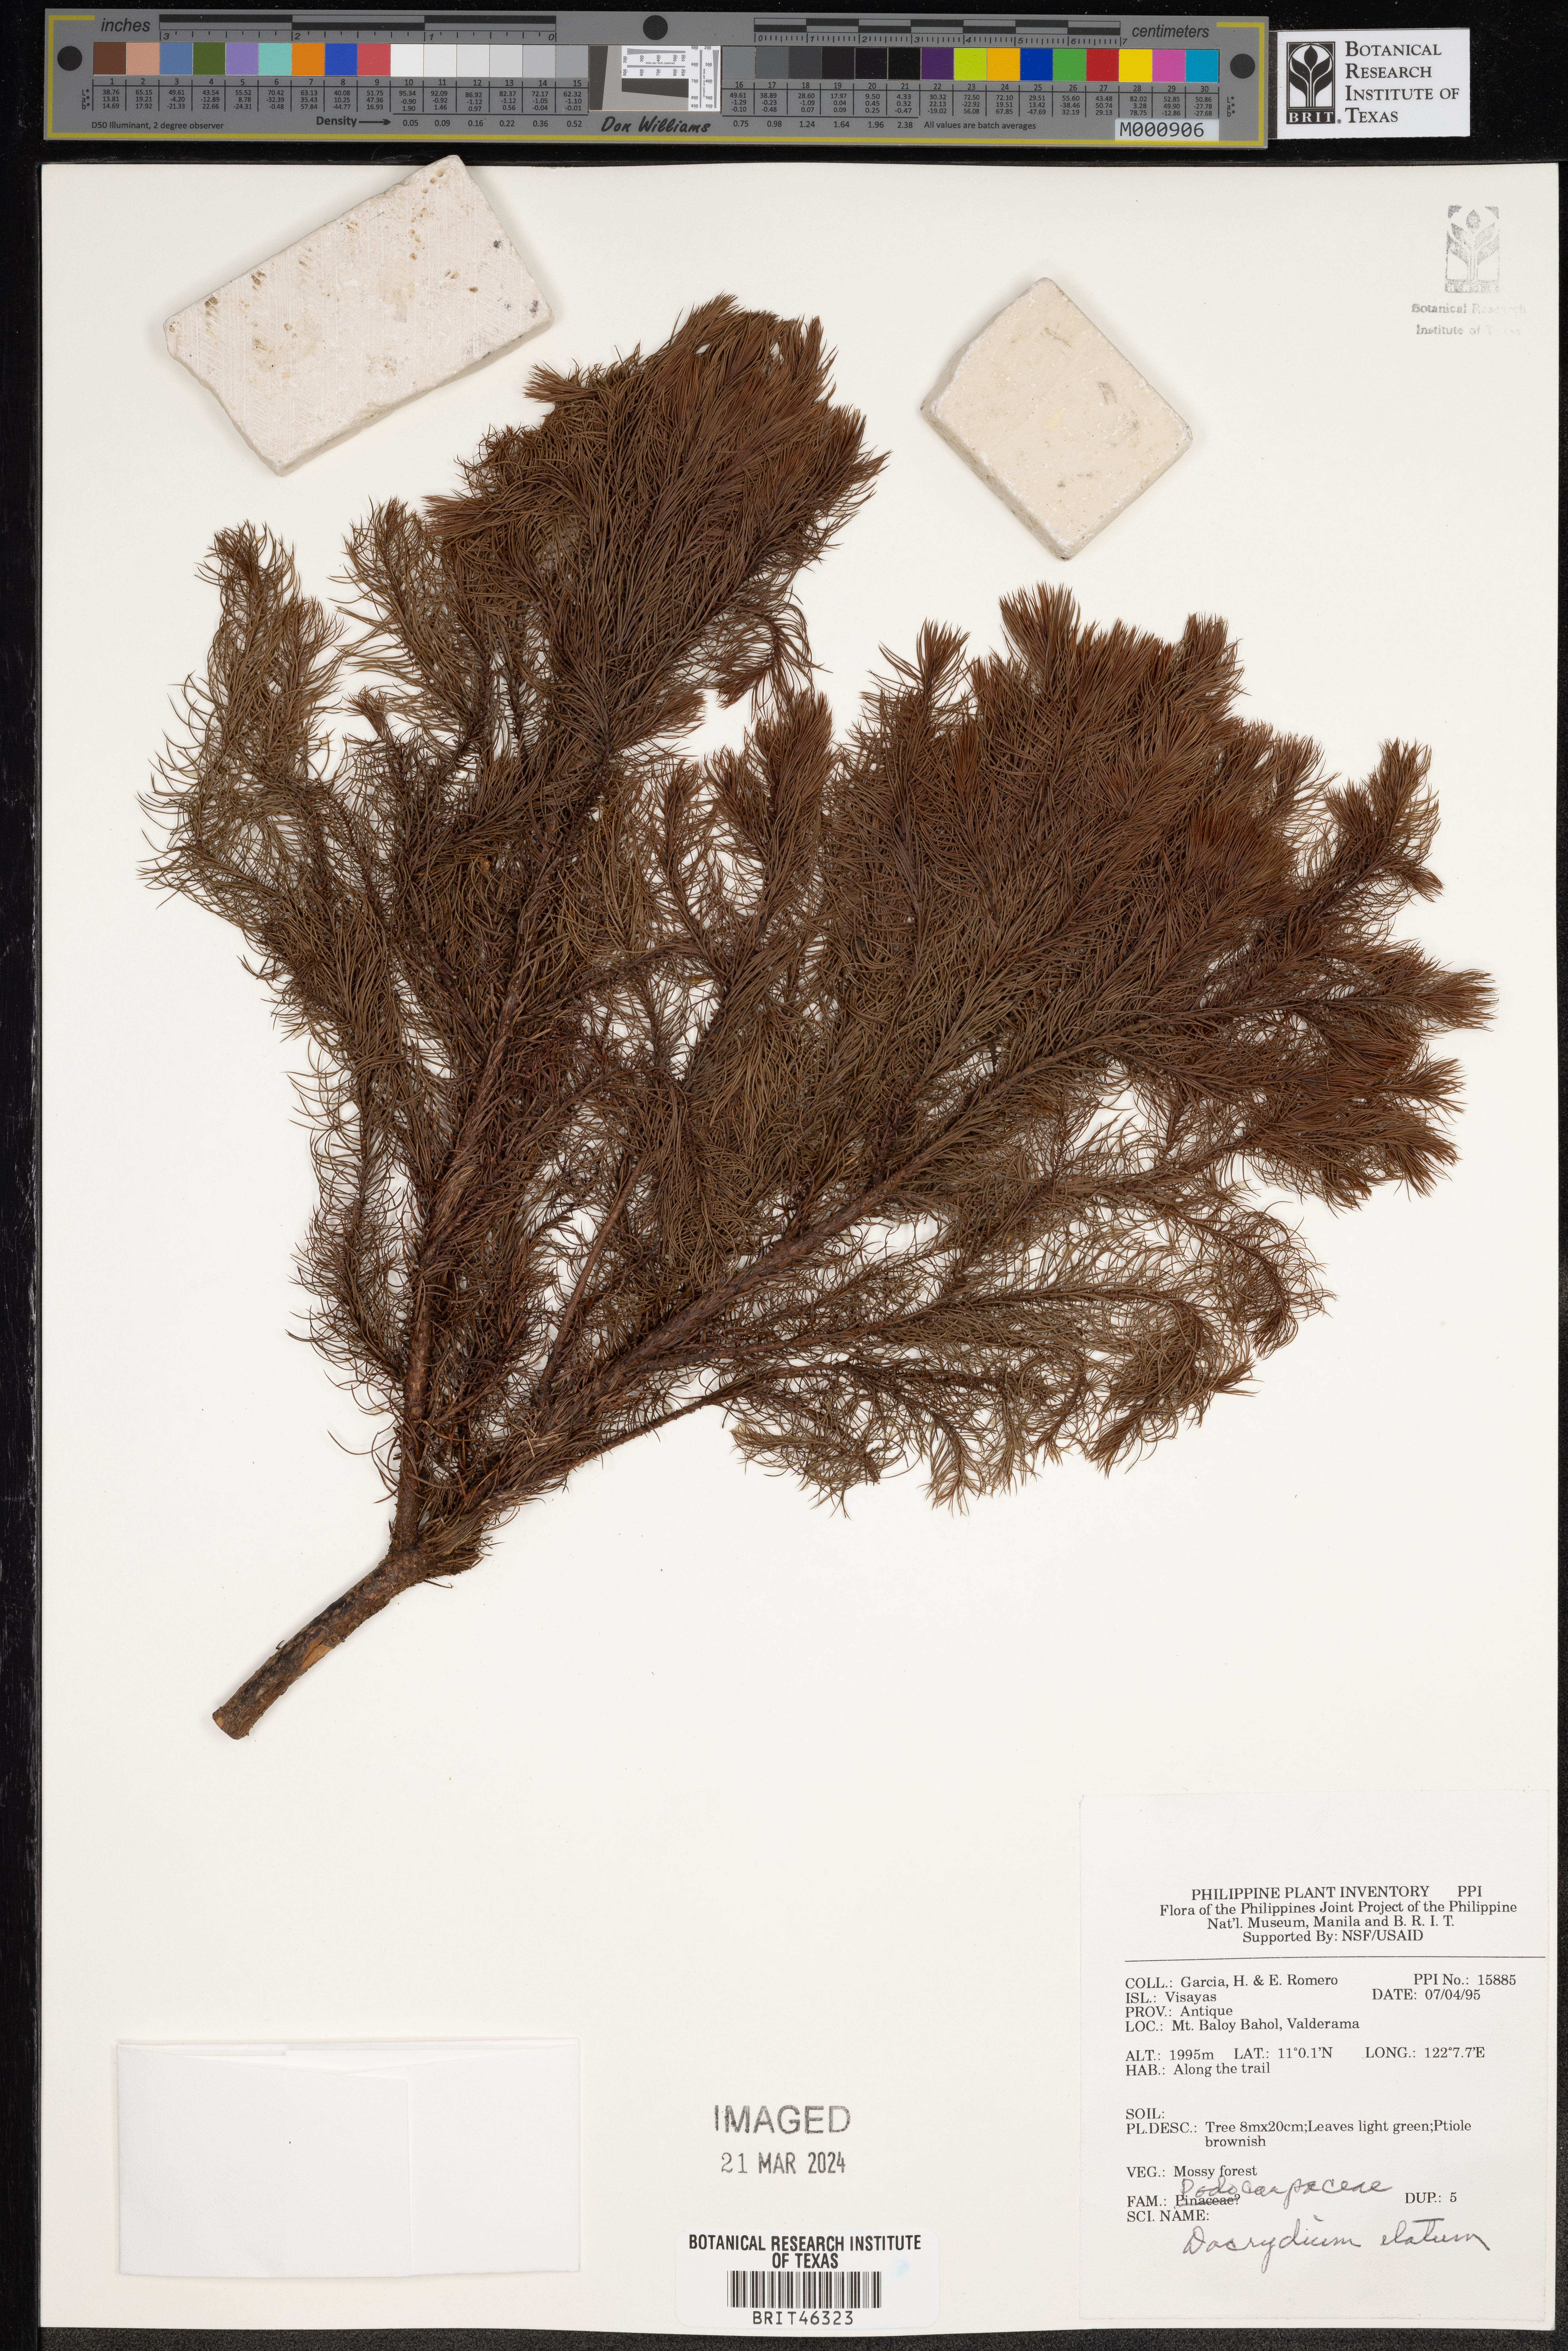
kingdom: Plantae
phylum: Tracheophyta
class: Pinopsida
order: Pinales
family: Podocarpaceae
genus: Dacrydium
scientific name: Dacrydium elatum
